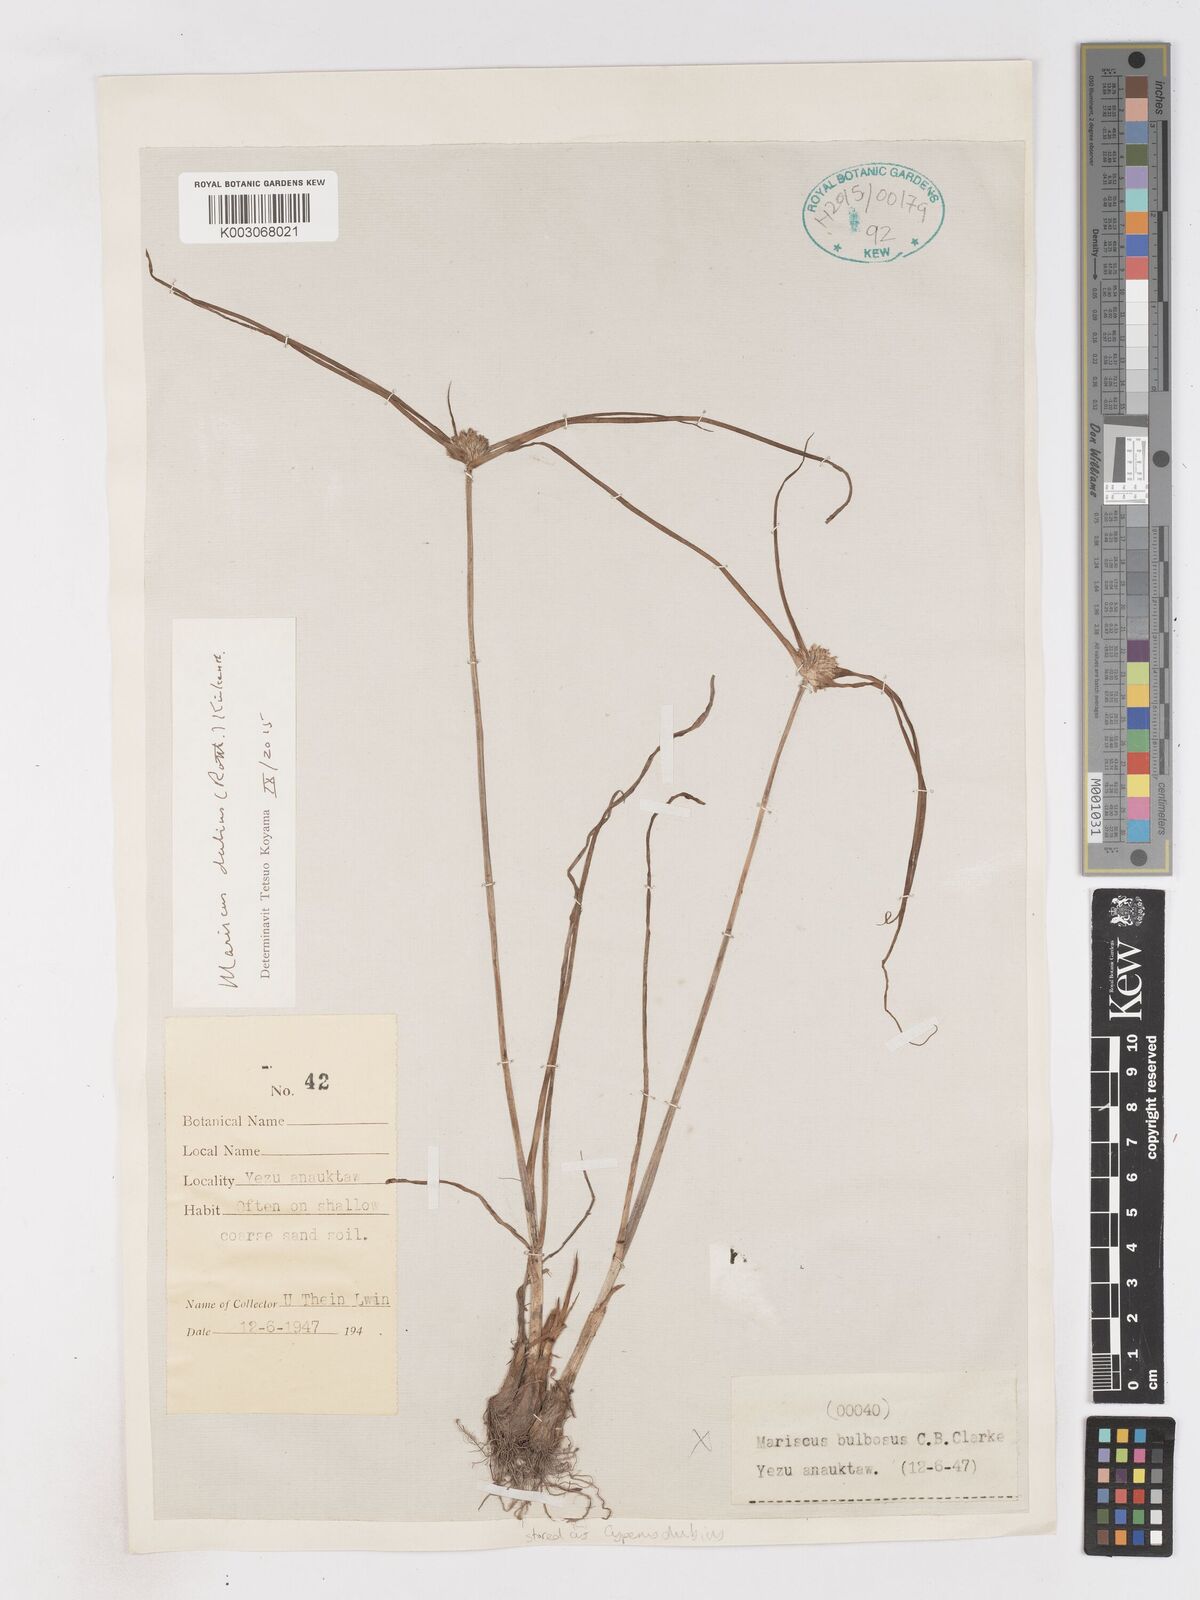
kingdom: Plantae
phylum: Tracheophyta
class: Liliopsida
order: Poales
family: Cyperaceae
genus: Cyperus
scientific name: Cyperus dubius
